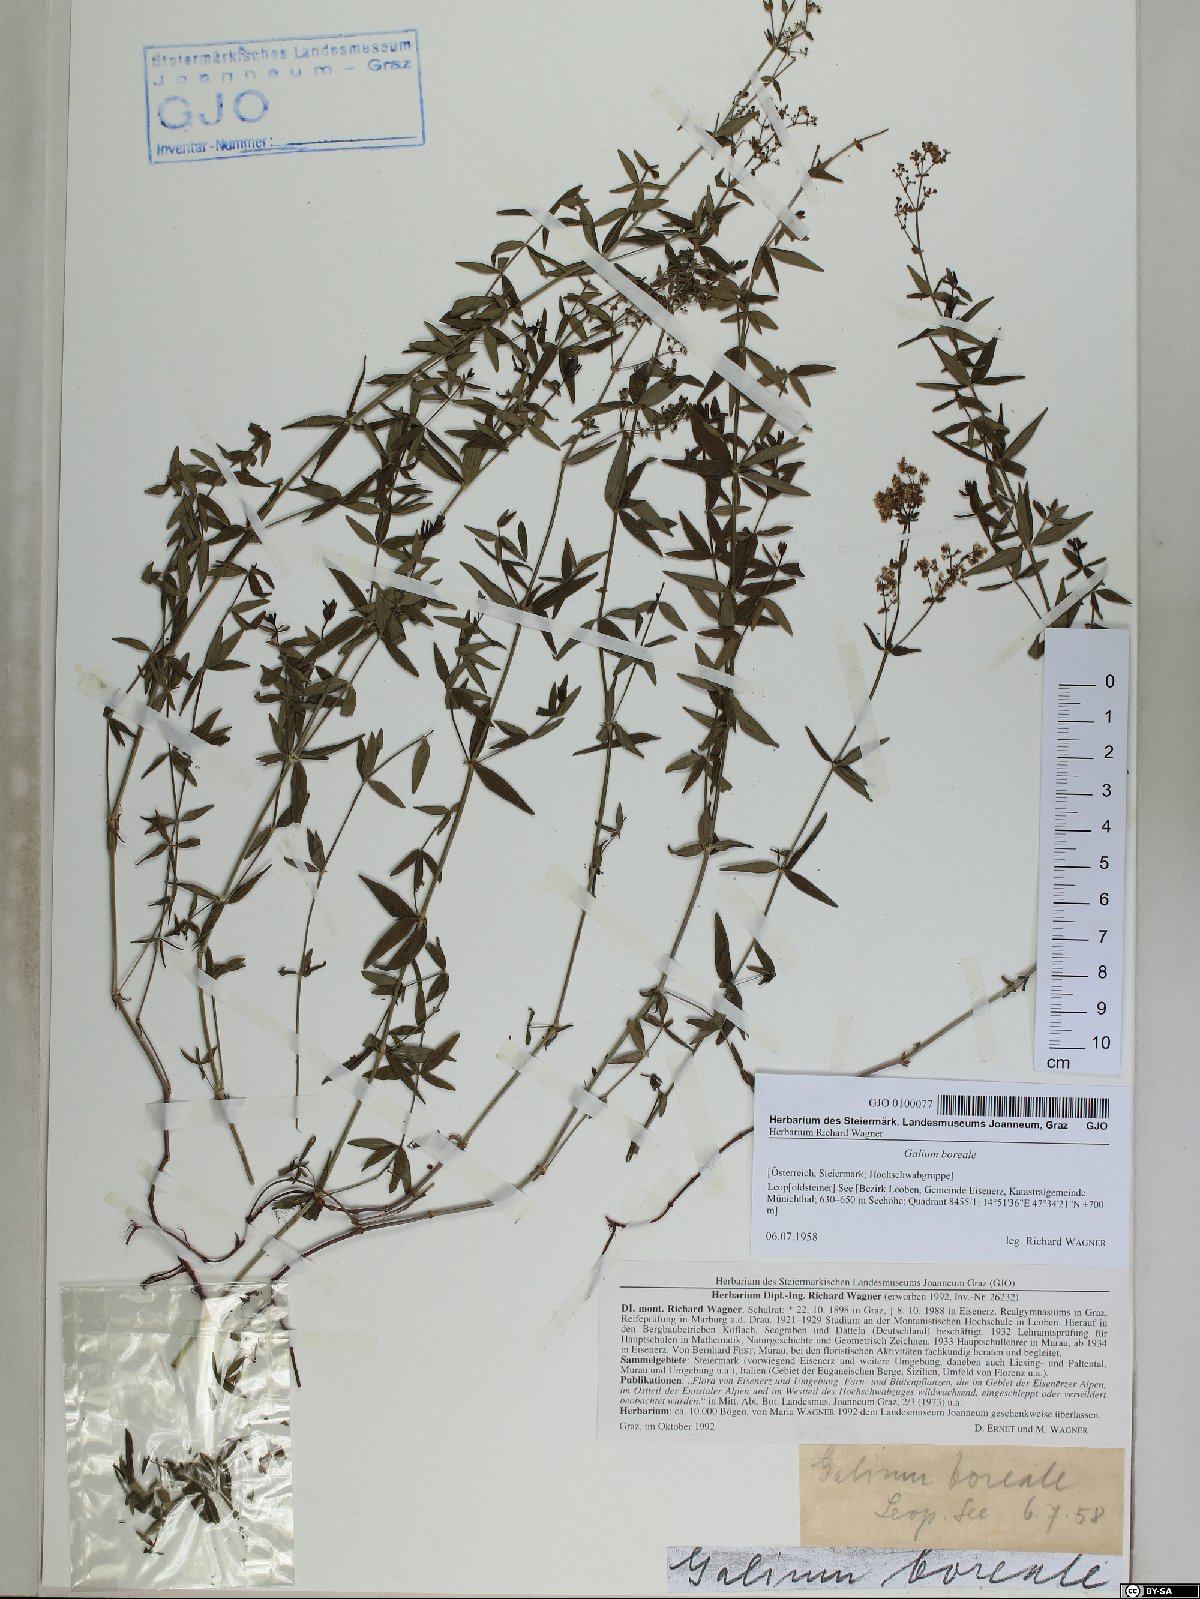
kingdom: Plantae
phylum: Tracheophyta
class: Magnoliopsida
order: Gentianales
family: Rubiaceae
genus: Galium
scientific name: Galium boreale
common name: Northern bedstraw
